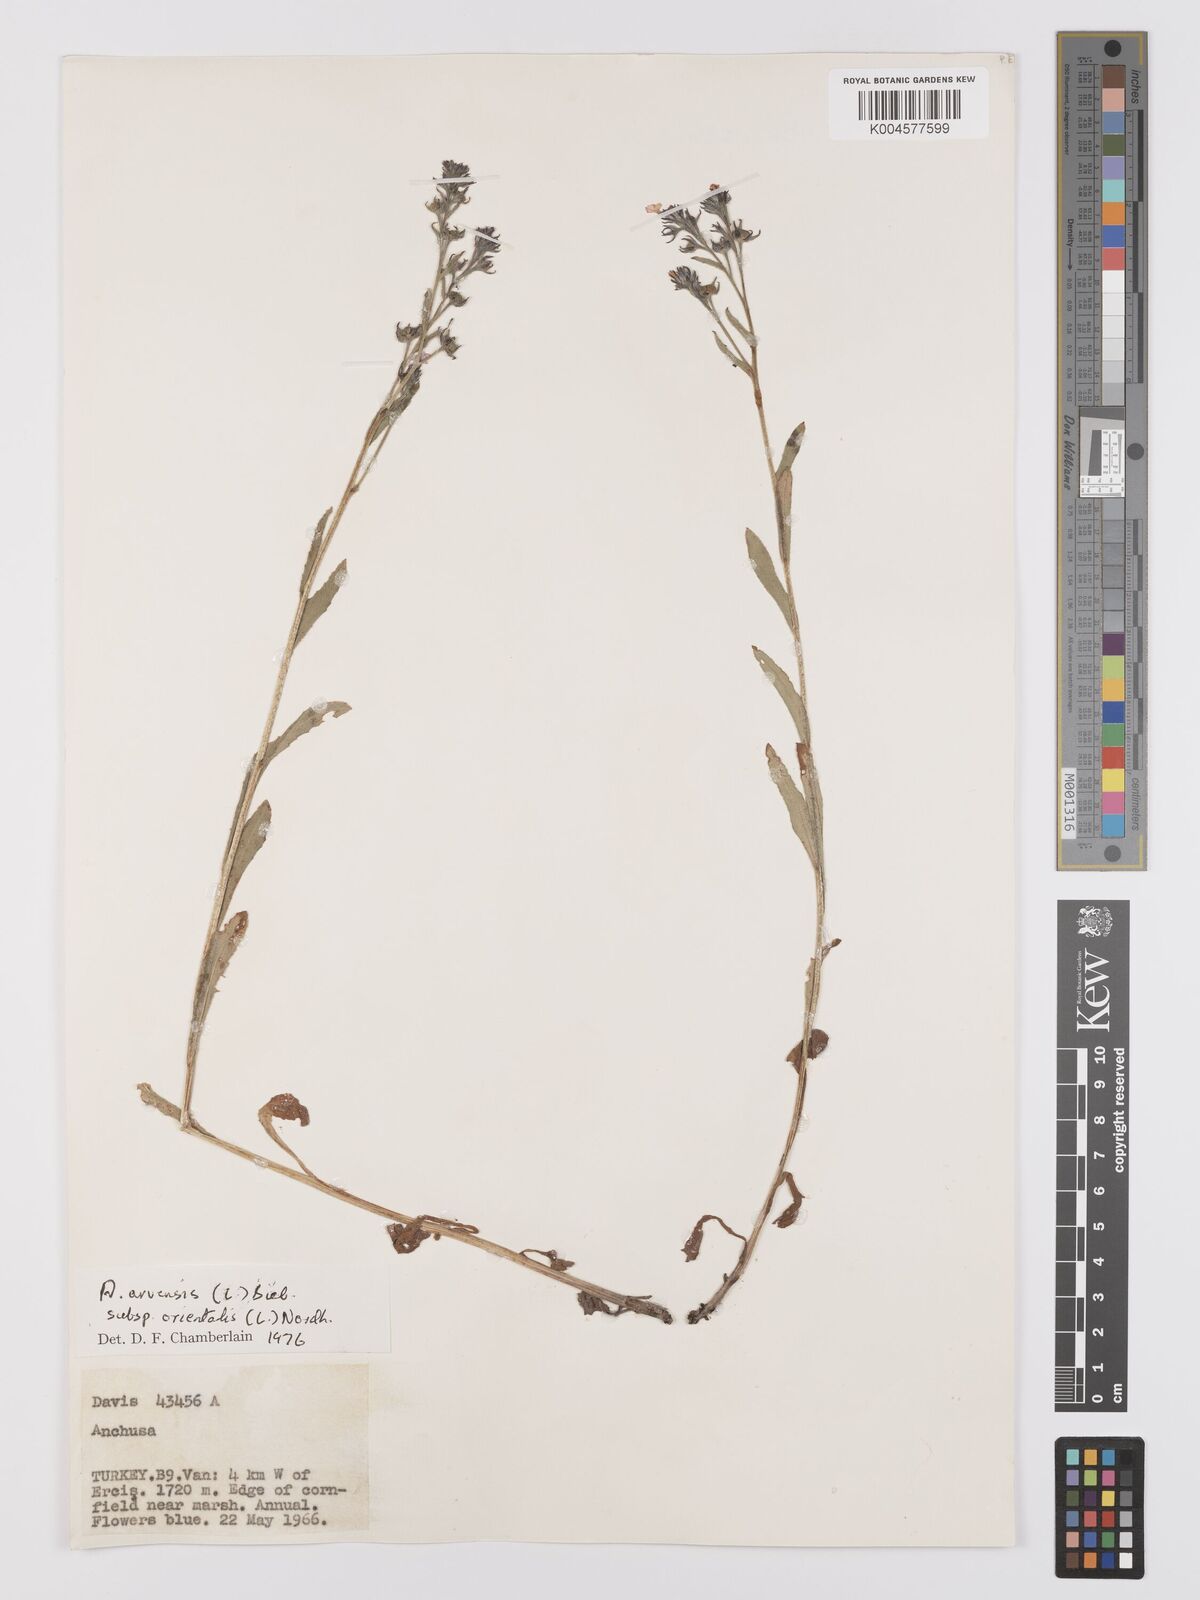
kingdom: Plantae
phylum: Tracheophyta
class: Magnoliopsida
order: Boraginales
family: Boraginaceae
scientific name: Boraginaceae
